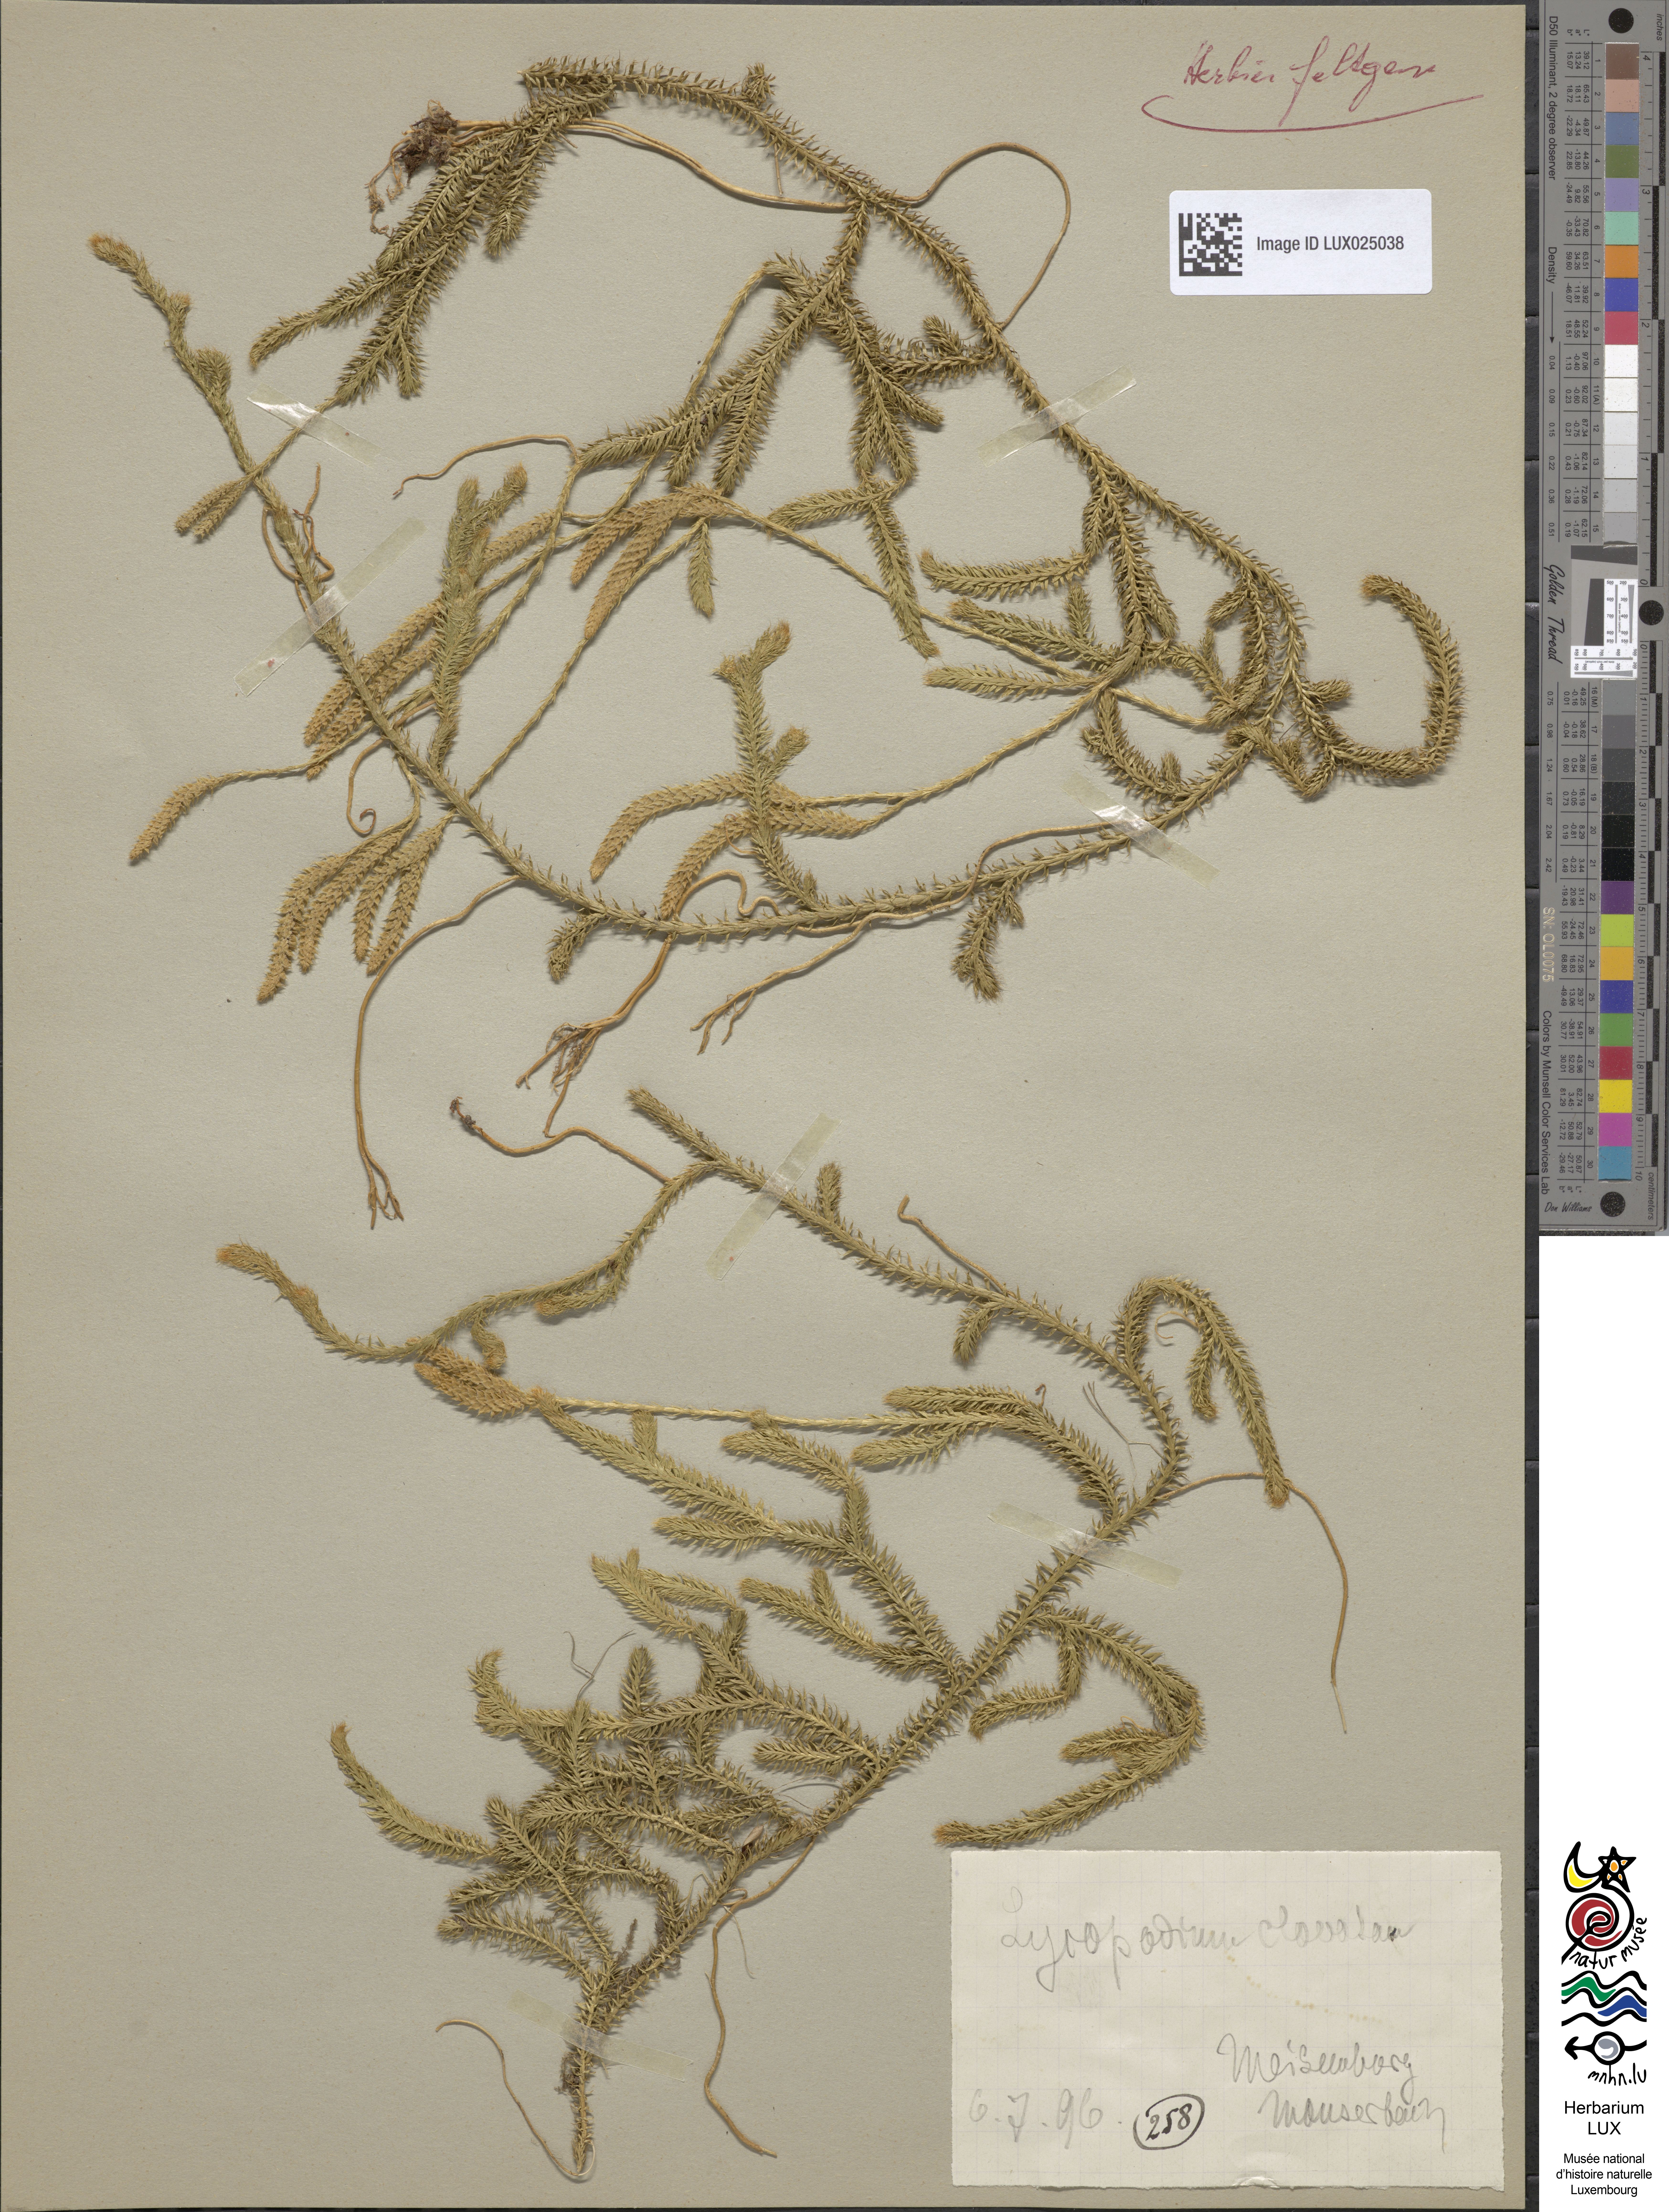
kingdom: Plantae
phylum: Tracheophyta
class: Lycopodiopsida
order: Lycopodiales
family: Lycopodiaceae
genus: Lycopodium
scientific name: Lycopodium clavatum
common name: Stag's-horn clubmoss
